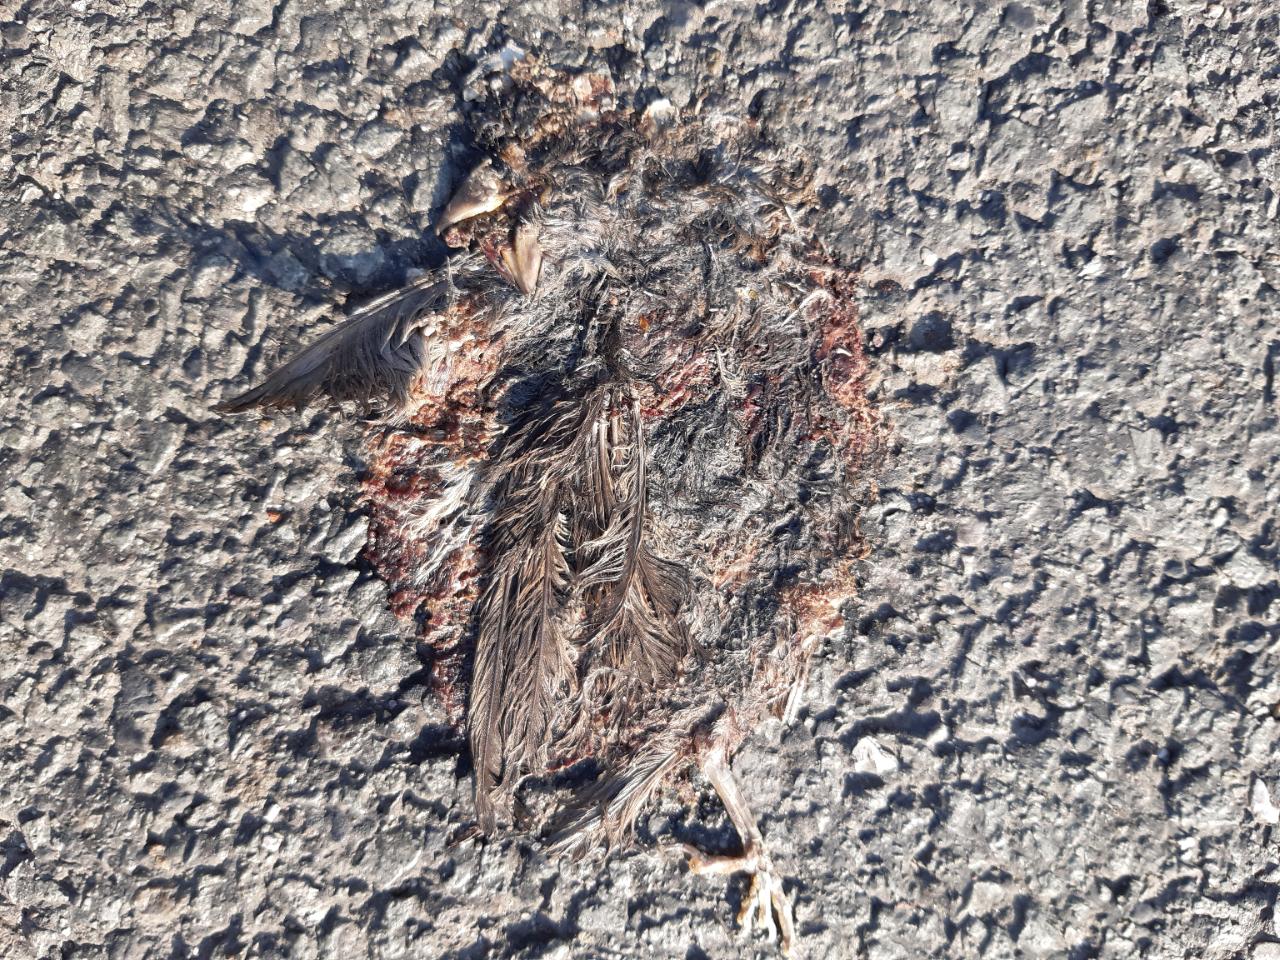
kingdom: Animalia
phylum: Chordata
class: Aves
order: Passeriformes
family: Passeridae
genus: Passer
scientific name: Passer domesticus
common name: House sparrow
